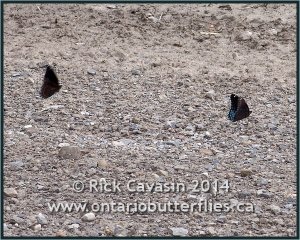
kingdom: Animalia
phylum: Arthropoda
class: Insecta
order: Lepidoptera
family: Nymphalidae
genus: Limenitis
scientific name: Limenitis astyanax
